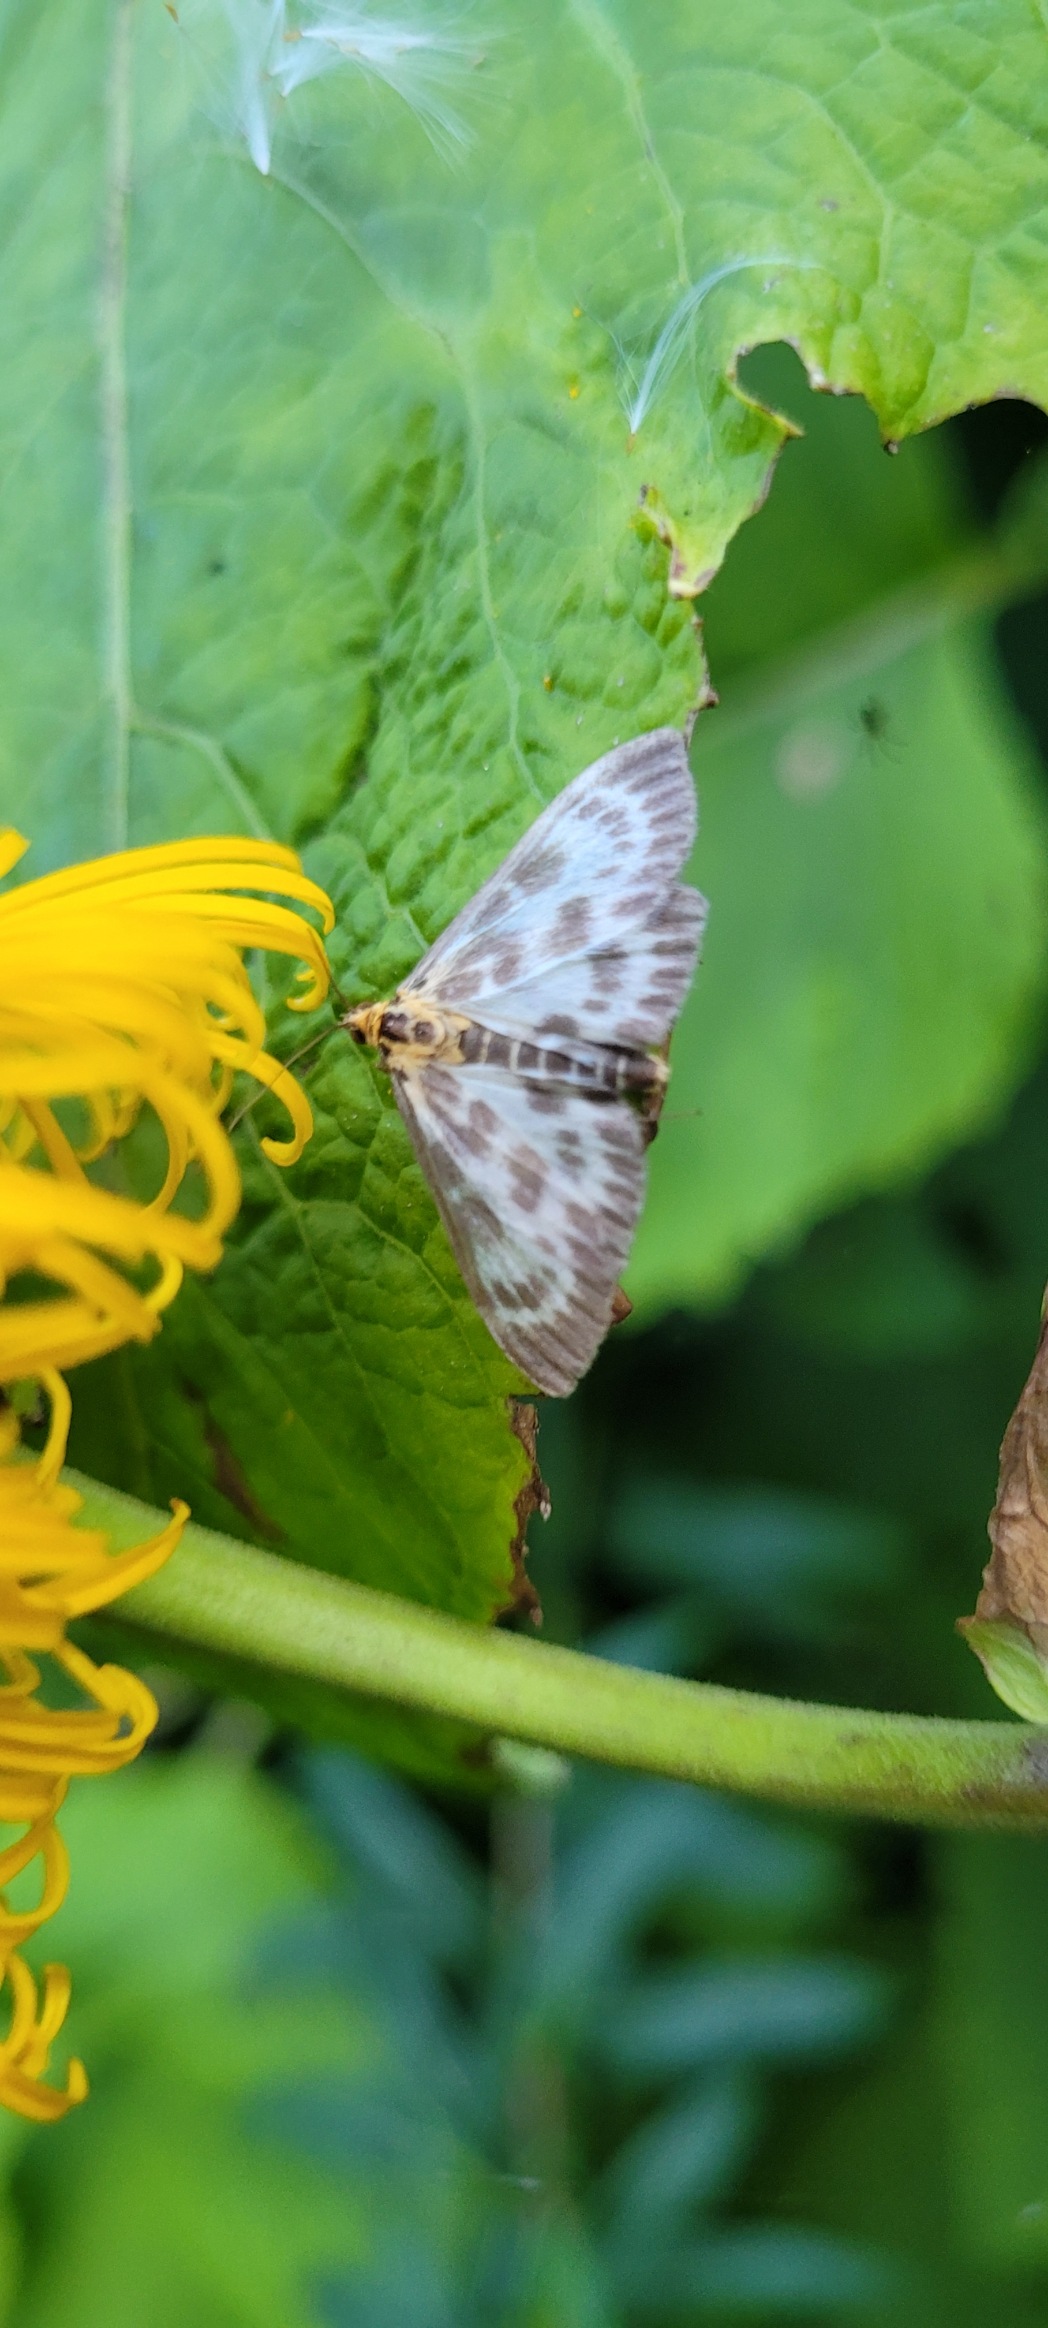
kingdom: Animalia
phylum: Arthropoda
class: Insecta
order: Lepidoptera
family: Crambidae
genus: Anania
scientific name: Anania hortulata
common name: Nældehalvmøl
